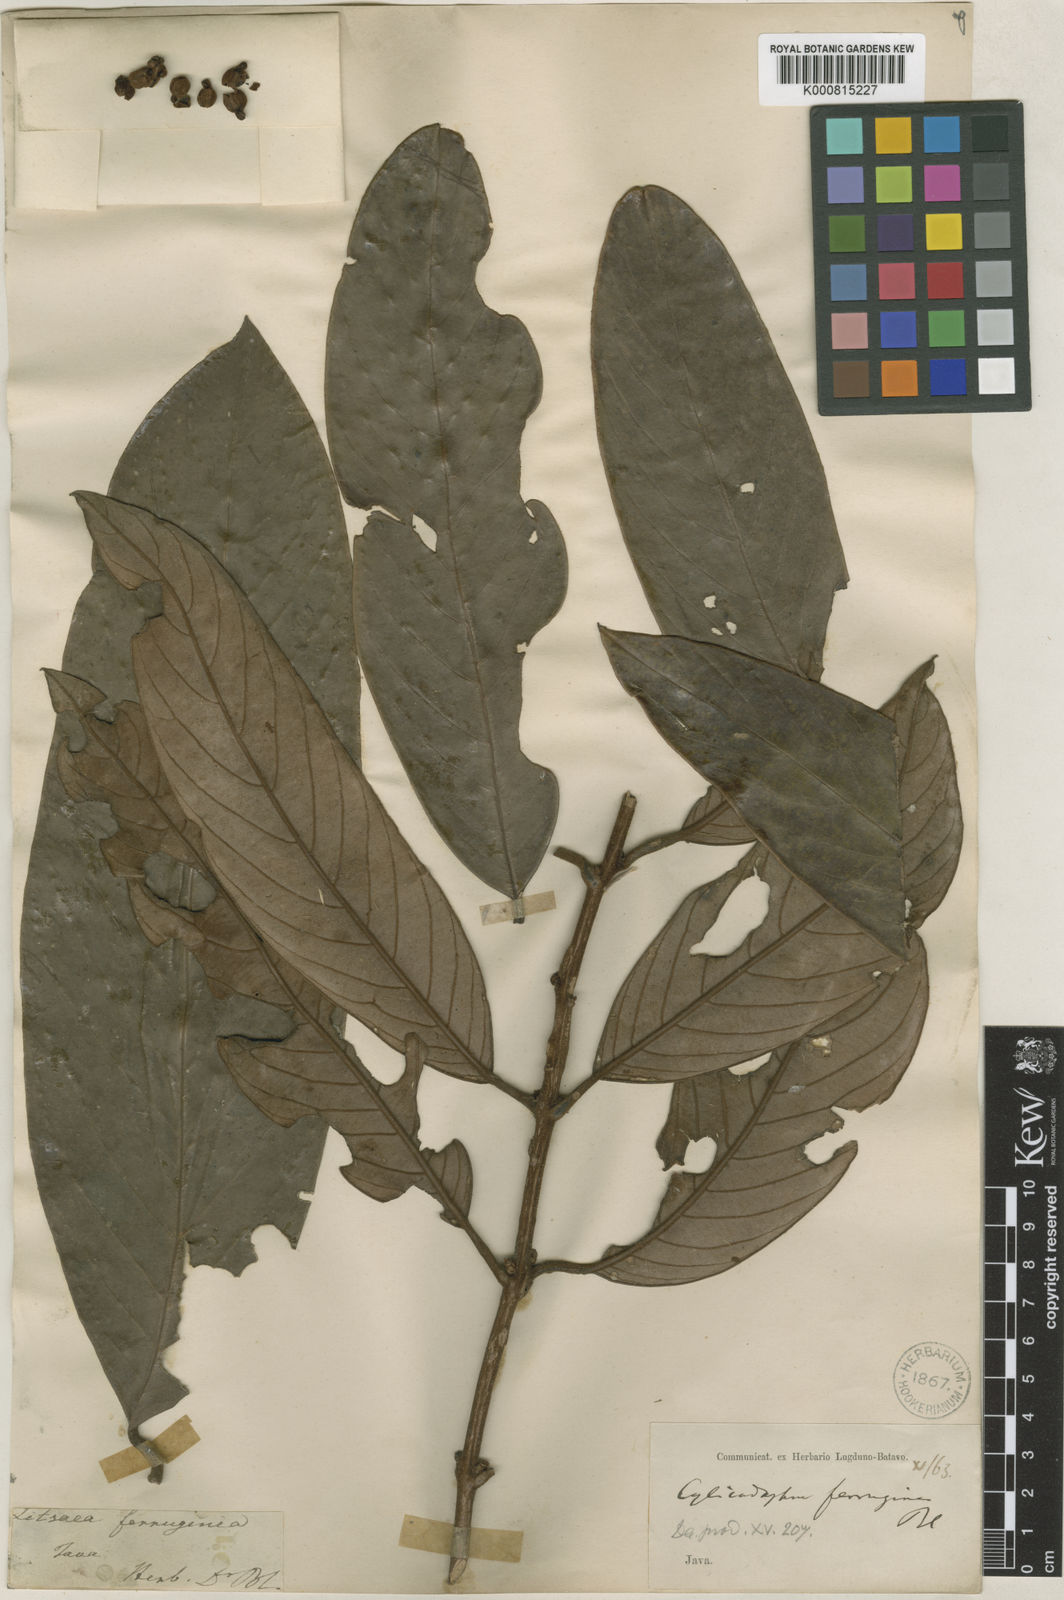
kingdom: Plantae
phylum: Tracheophyta
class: Magnoliopsida
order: Laurales
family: Lauraceae
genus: Litsea
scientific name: Litsea ferruginea
